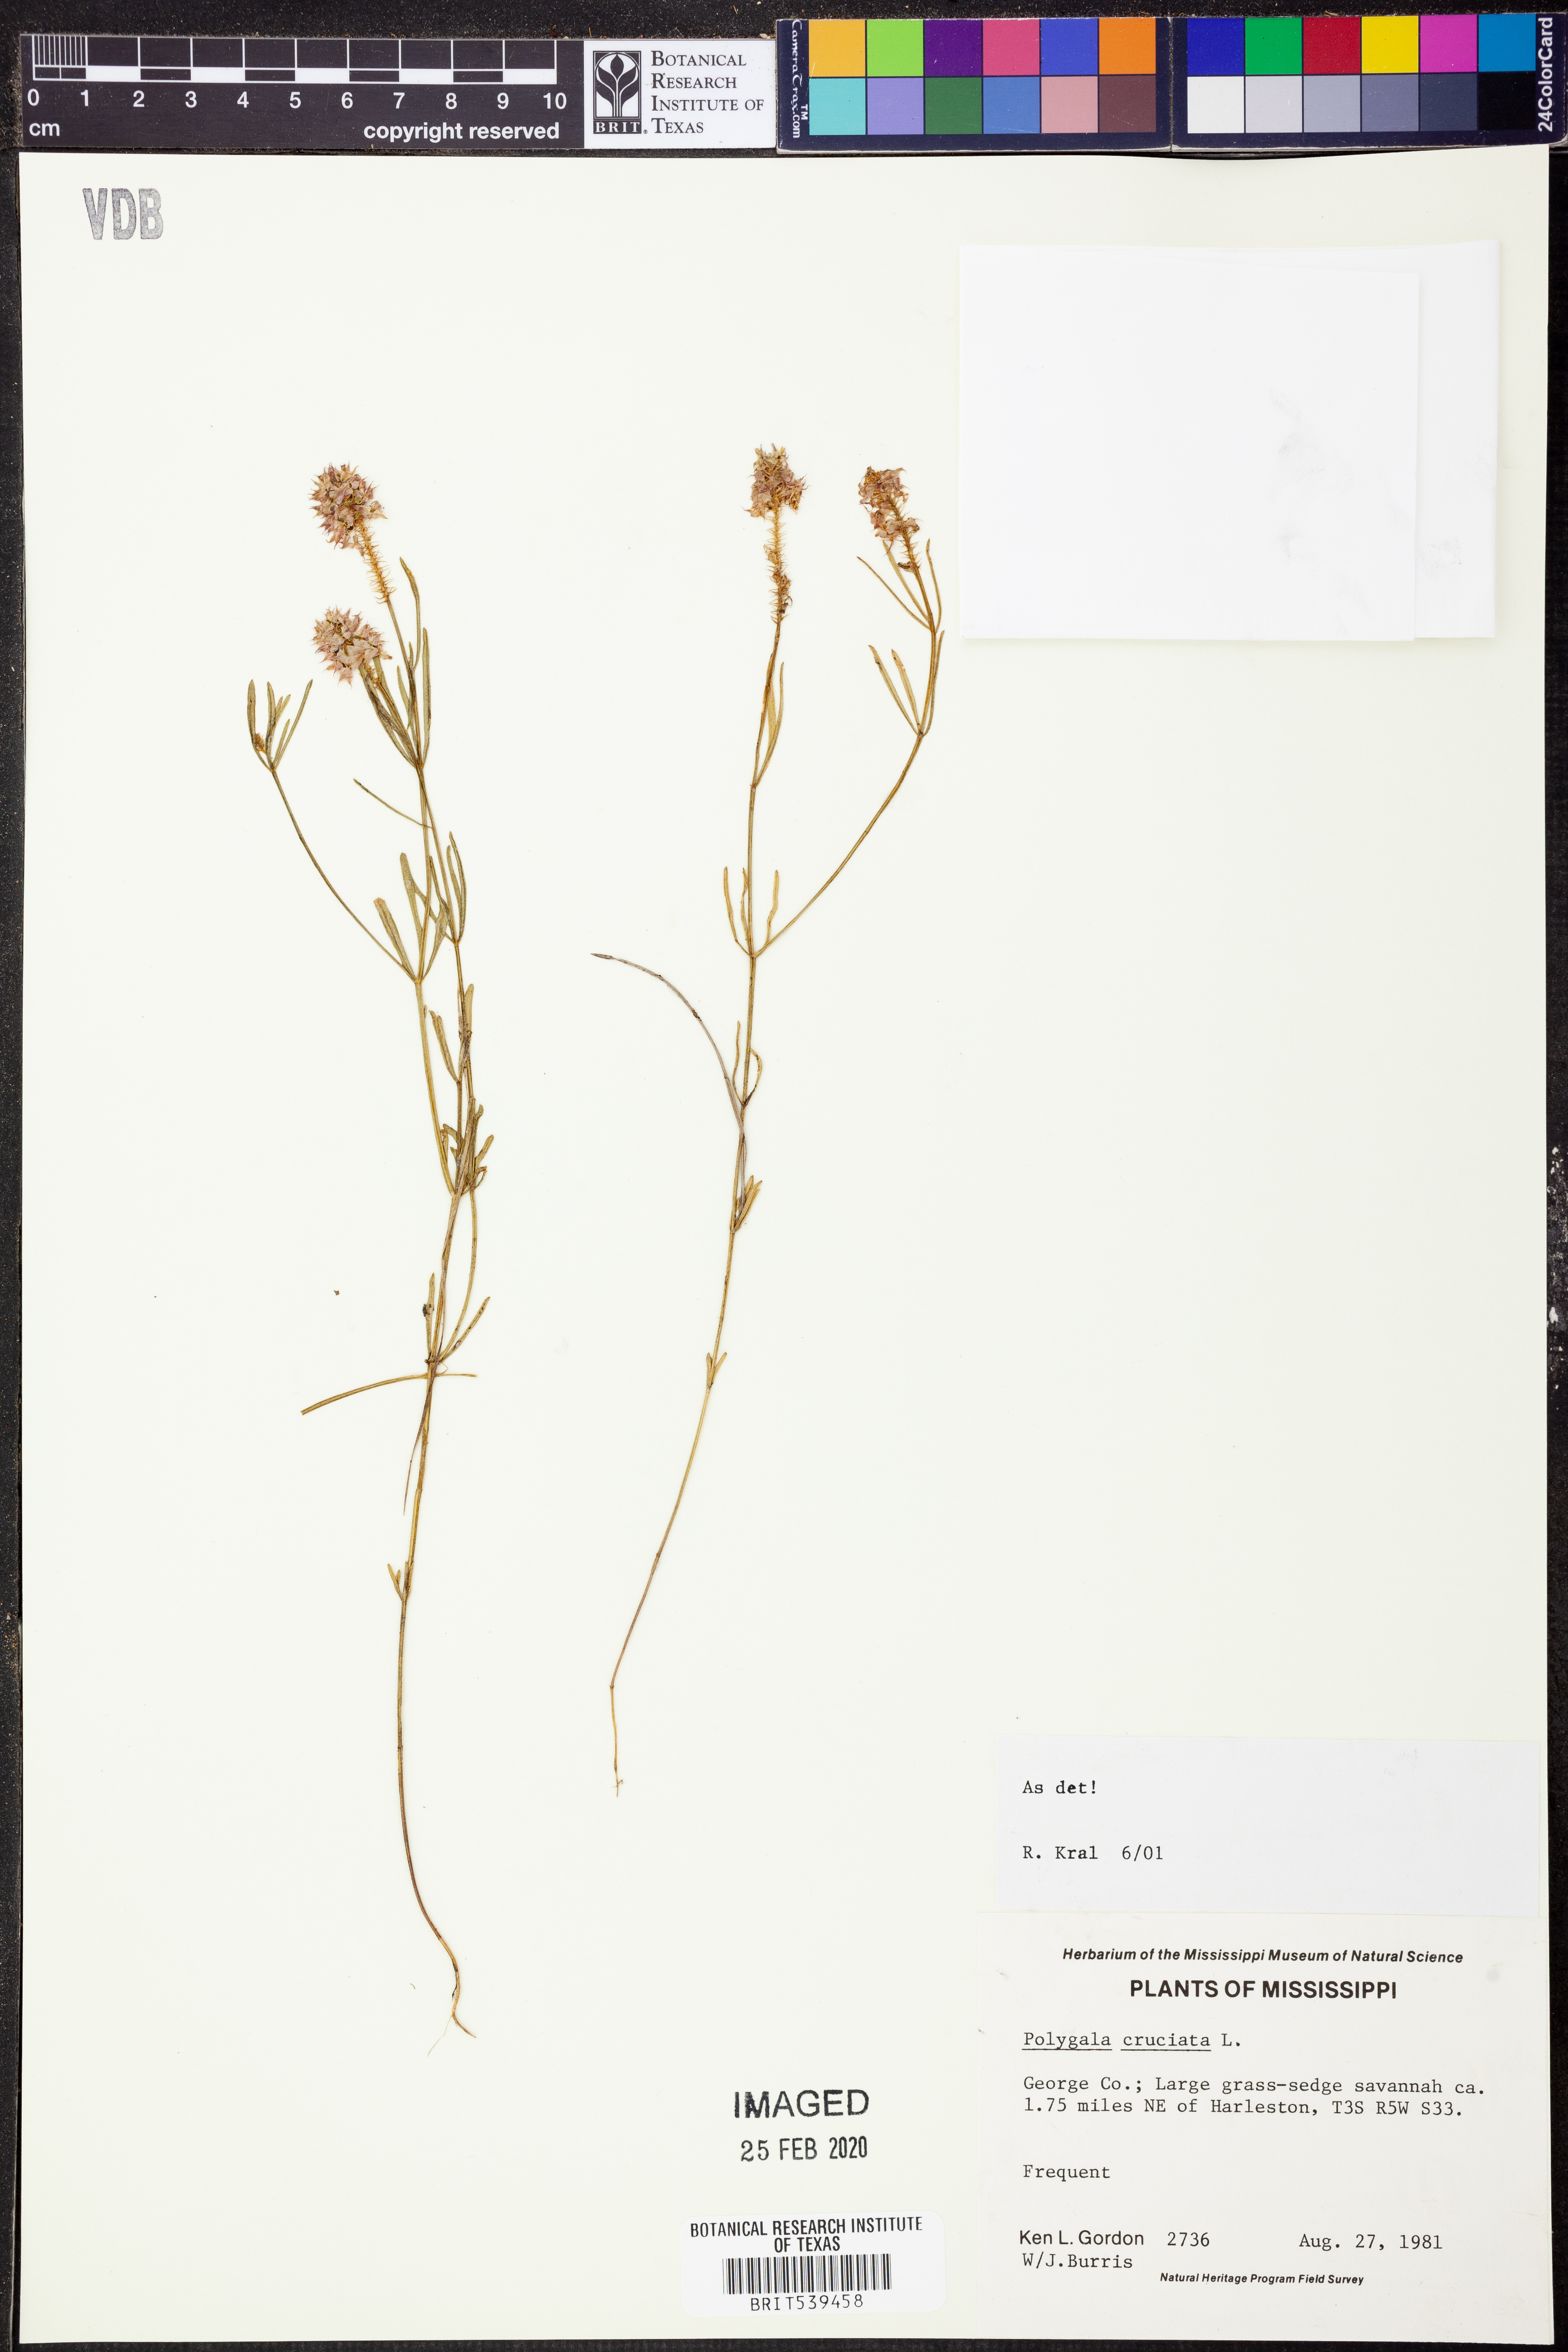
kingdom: Plantae
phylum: Tracheophyta
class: Magnoliopsida
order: Fabales
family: Polygalaceae
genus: Polygala
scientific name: Polygala cruciata
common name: Drumheads
